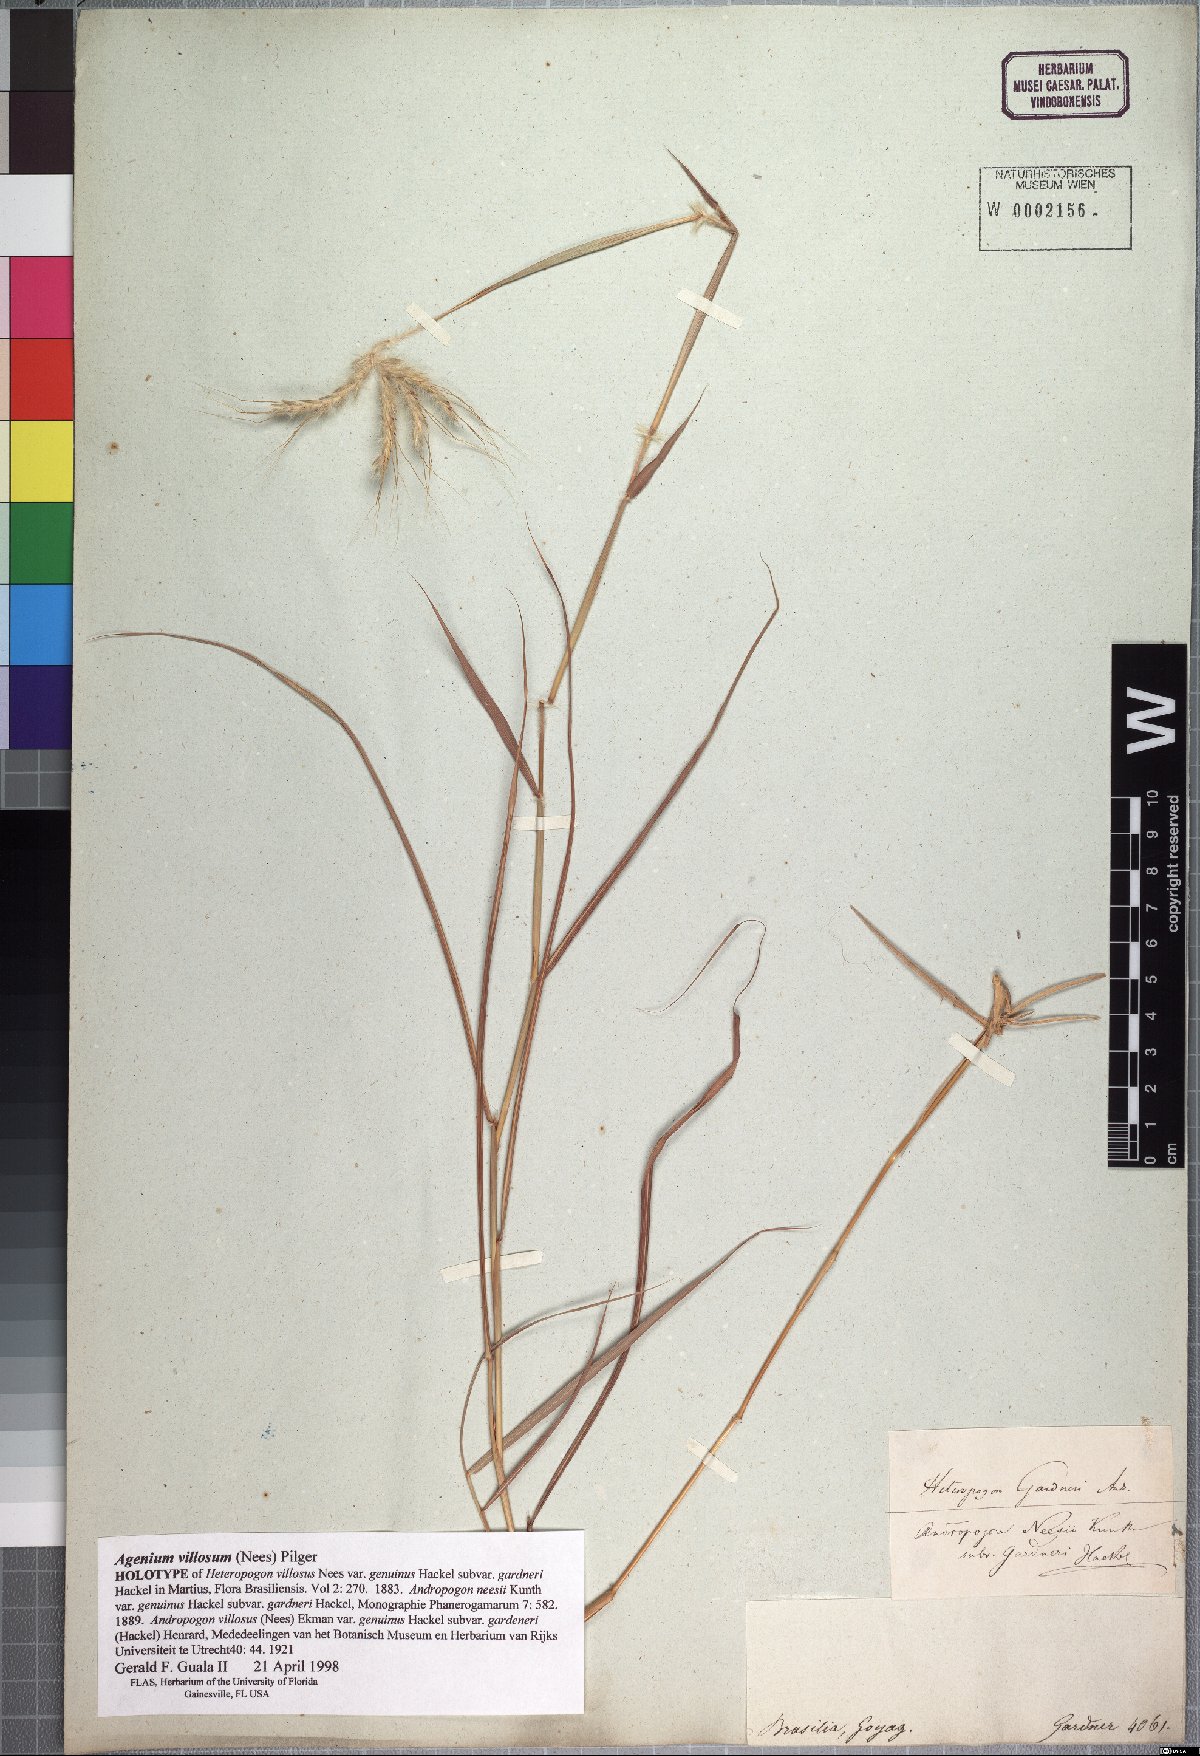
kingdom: Plantae
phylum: Tracheophyta
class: Liliopsida
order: Poales
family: Poaceae
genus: Agenium
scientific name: Agenium villosum
